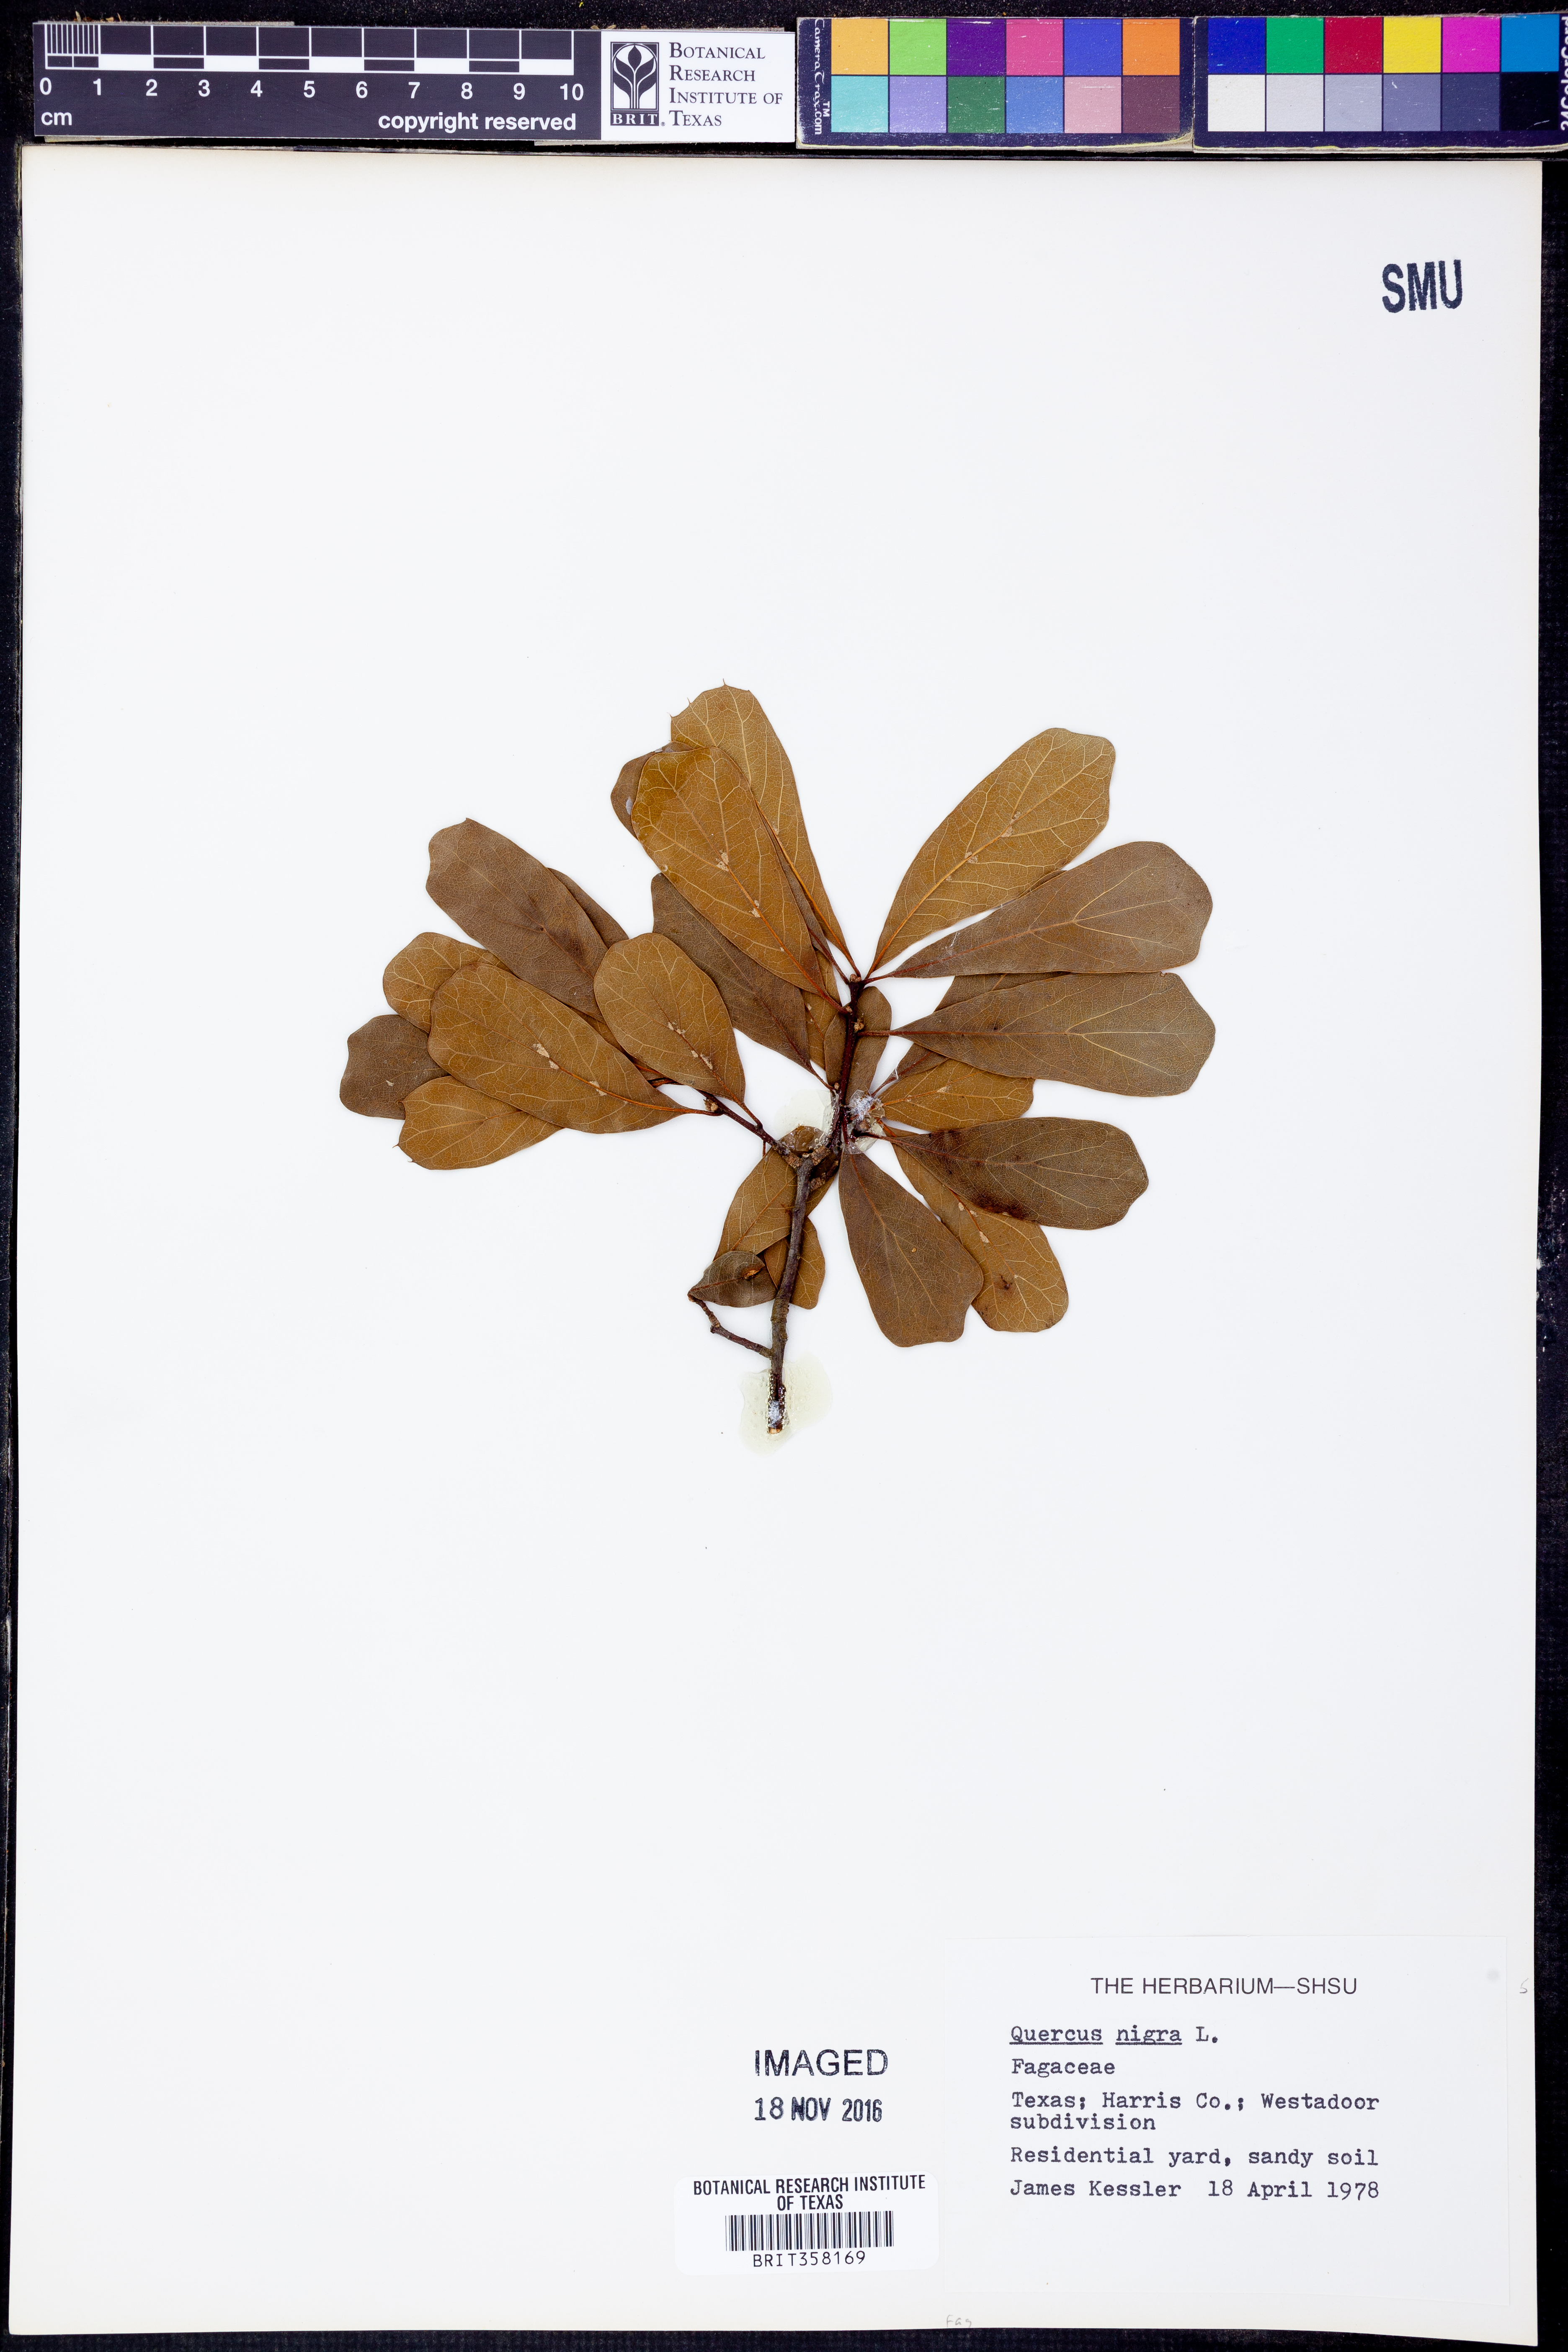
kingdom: Plantae
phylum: Tracheophyta
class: Magnoliopsida
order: Fagales
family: Fagaceae
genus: Quercus
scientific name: Quercus nigra
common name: Water oak
